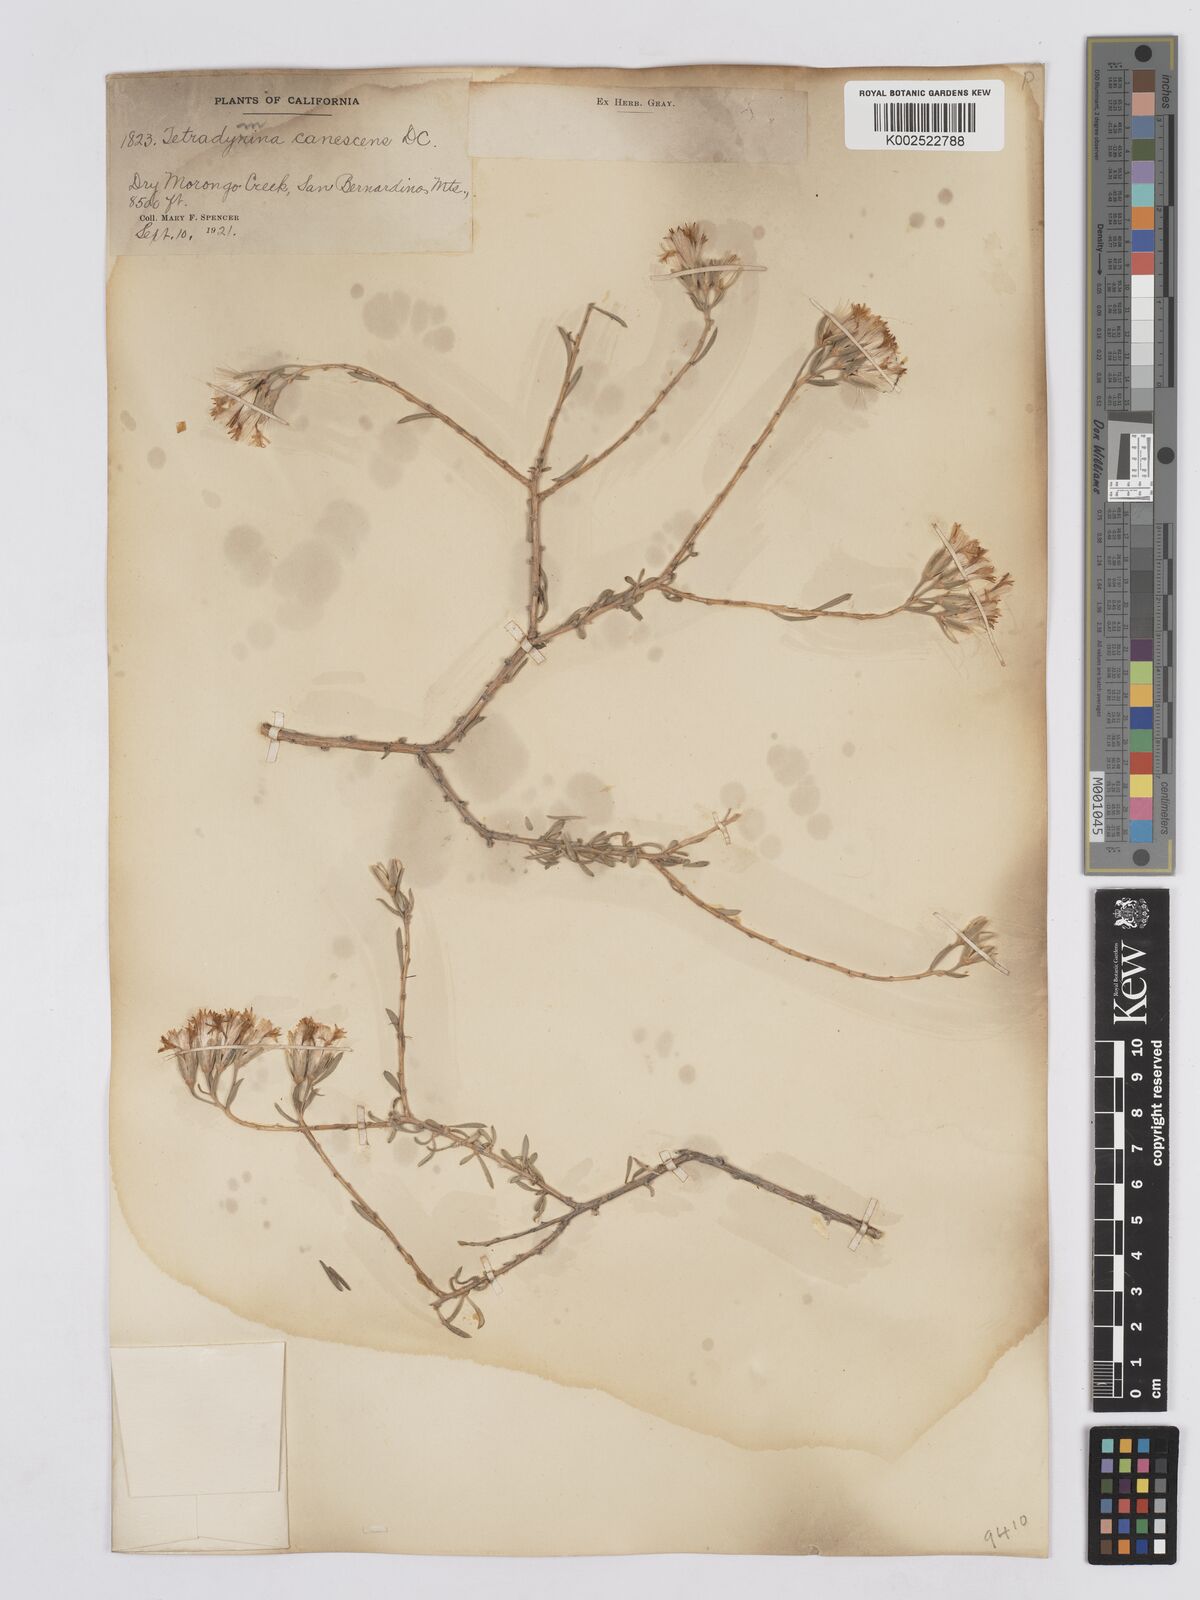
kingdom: Plantae
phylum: Tracheophyta
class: Magnoliopsida
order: Asterales
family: Asteraceae
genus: Tetradymia
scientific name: Tetradymia canescens
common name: Spineless horsebrush
